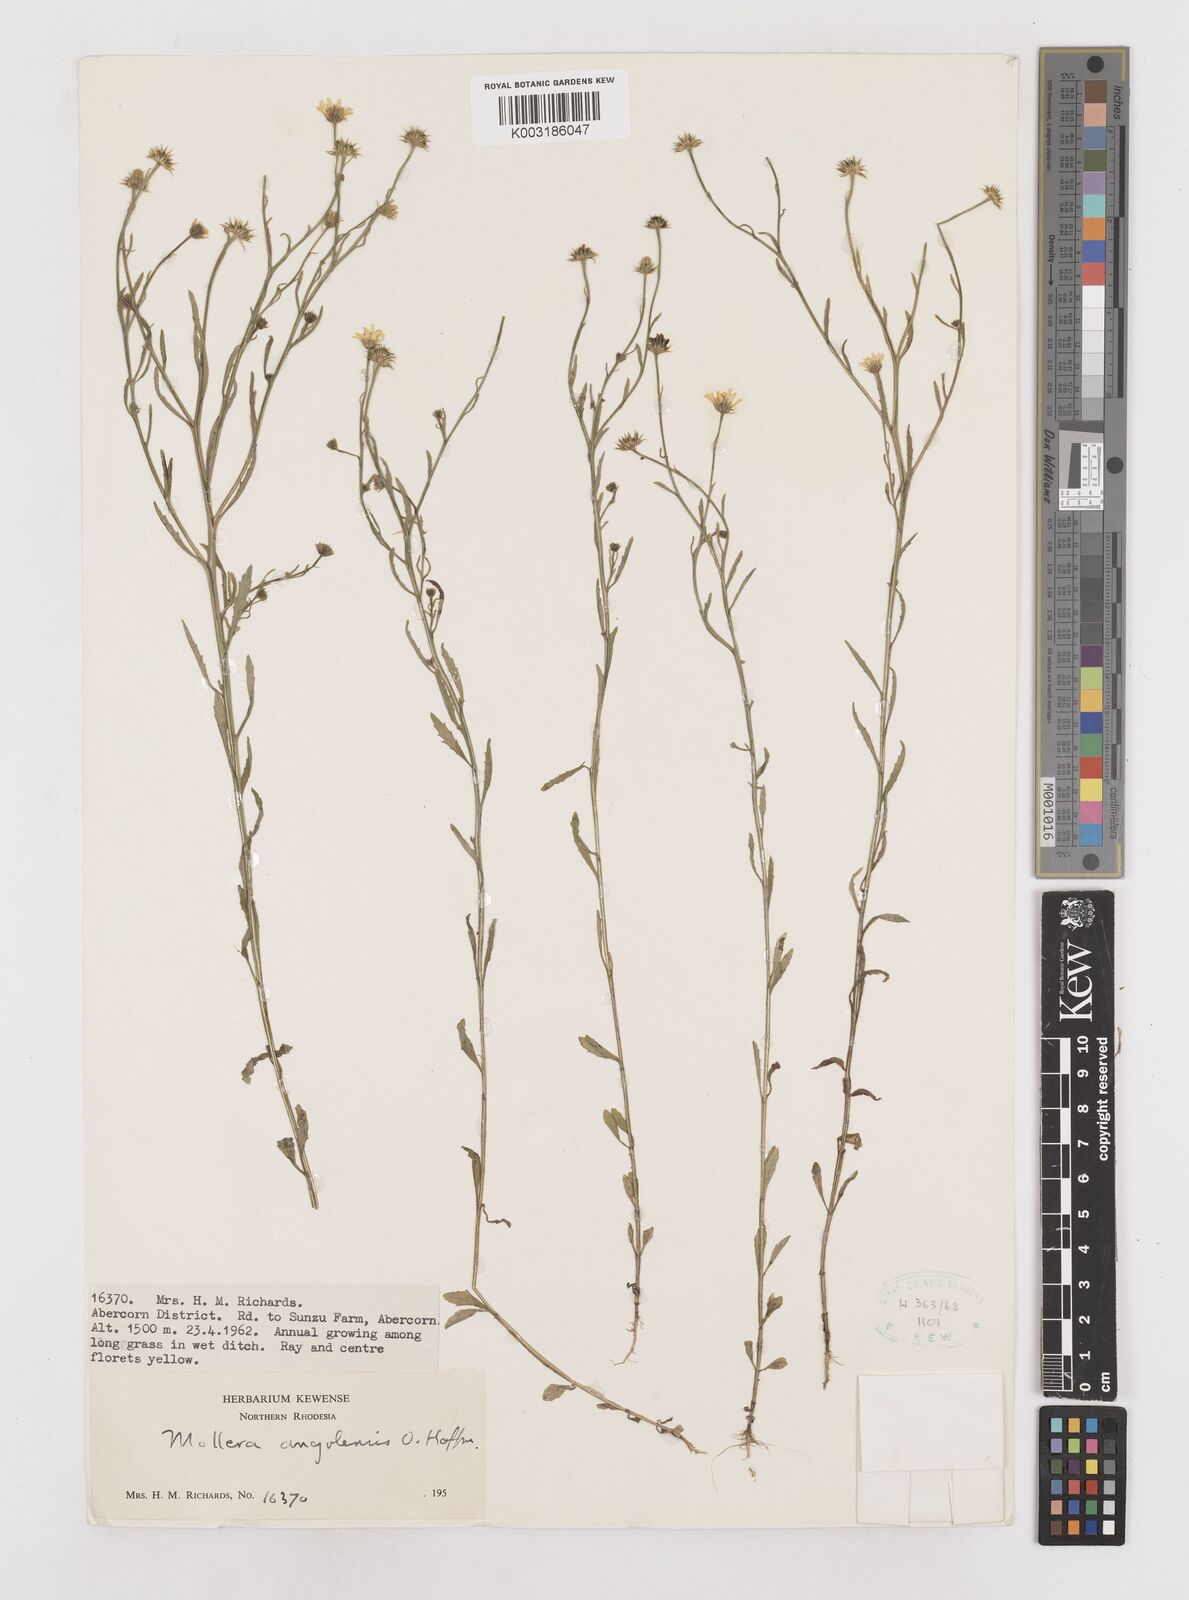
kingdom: Plantae
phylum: Tracheophyta
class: Magnoliopsida
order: Asterales
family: Asteraceae
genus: Calostephane
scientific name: Calostephane angolensis
